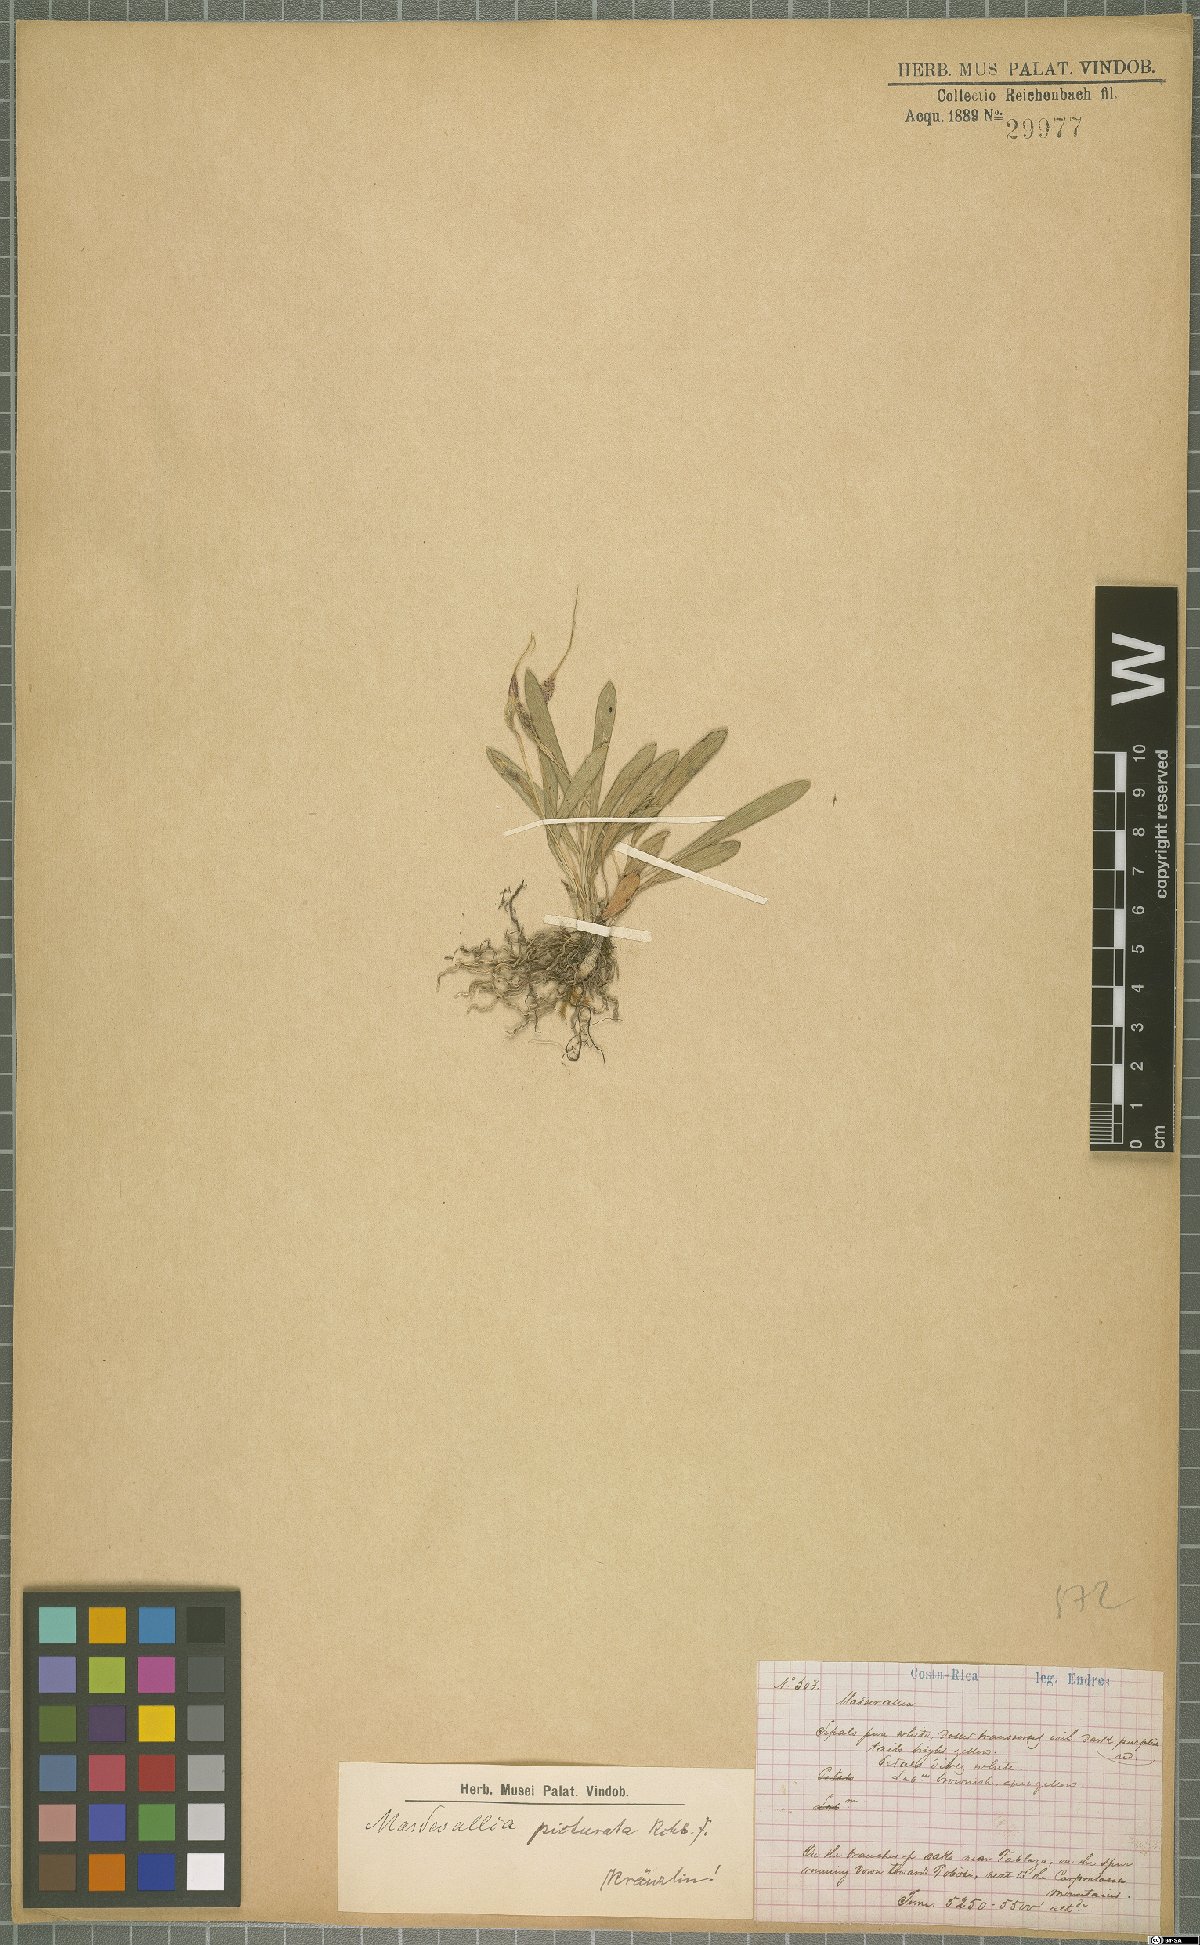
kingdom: Plantae
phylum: Tracheophyta
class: Liliopsida
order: Asparagales
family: Orchidaceae
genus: Masdevallia
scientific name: Masdevallia picturata
